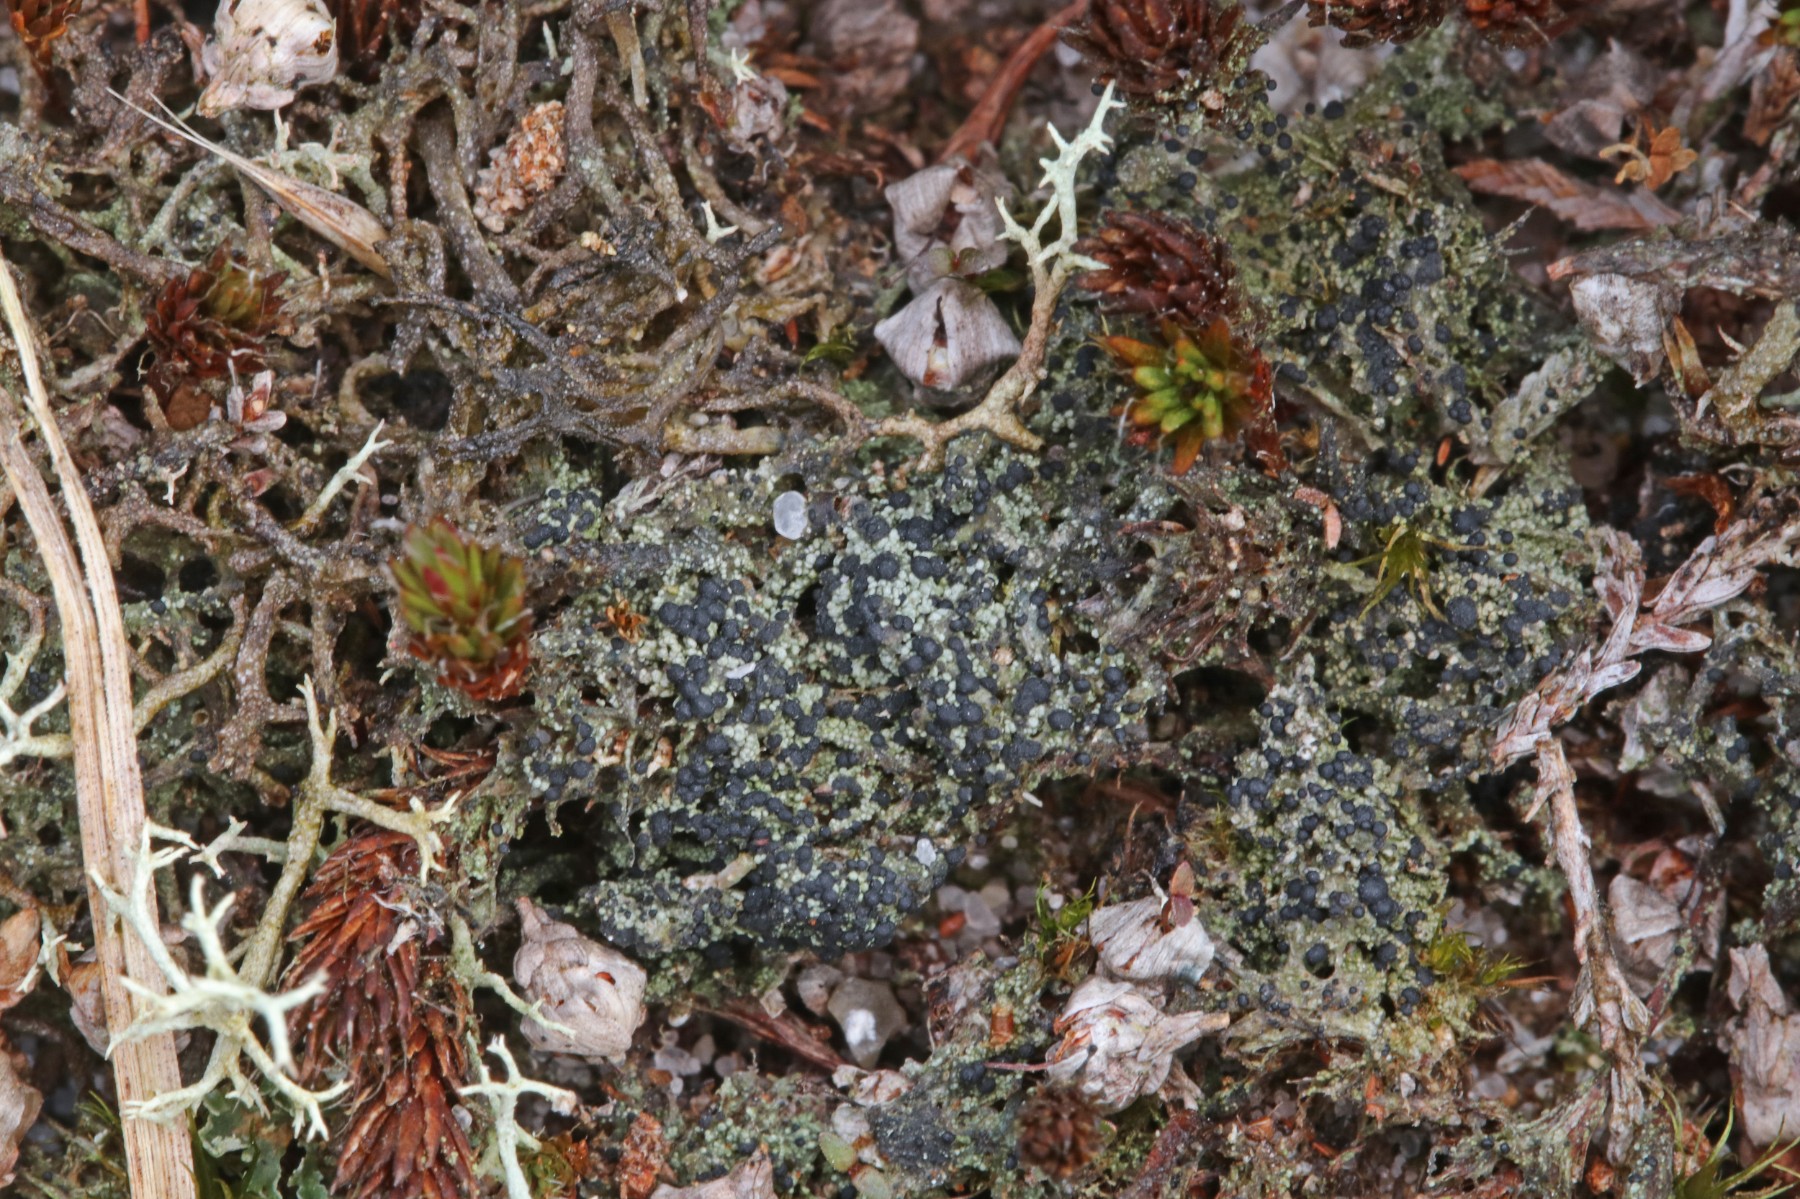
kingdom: Fungi
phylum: Ascomycota
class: Lecanoromycetes
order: Lecanorales
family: Byssolomataceae
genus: Micarea
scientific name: Micarea lignaria
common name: tørve-knaplav
